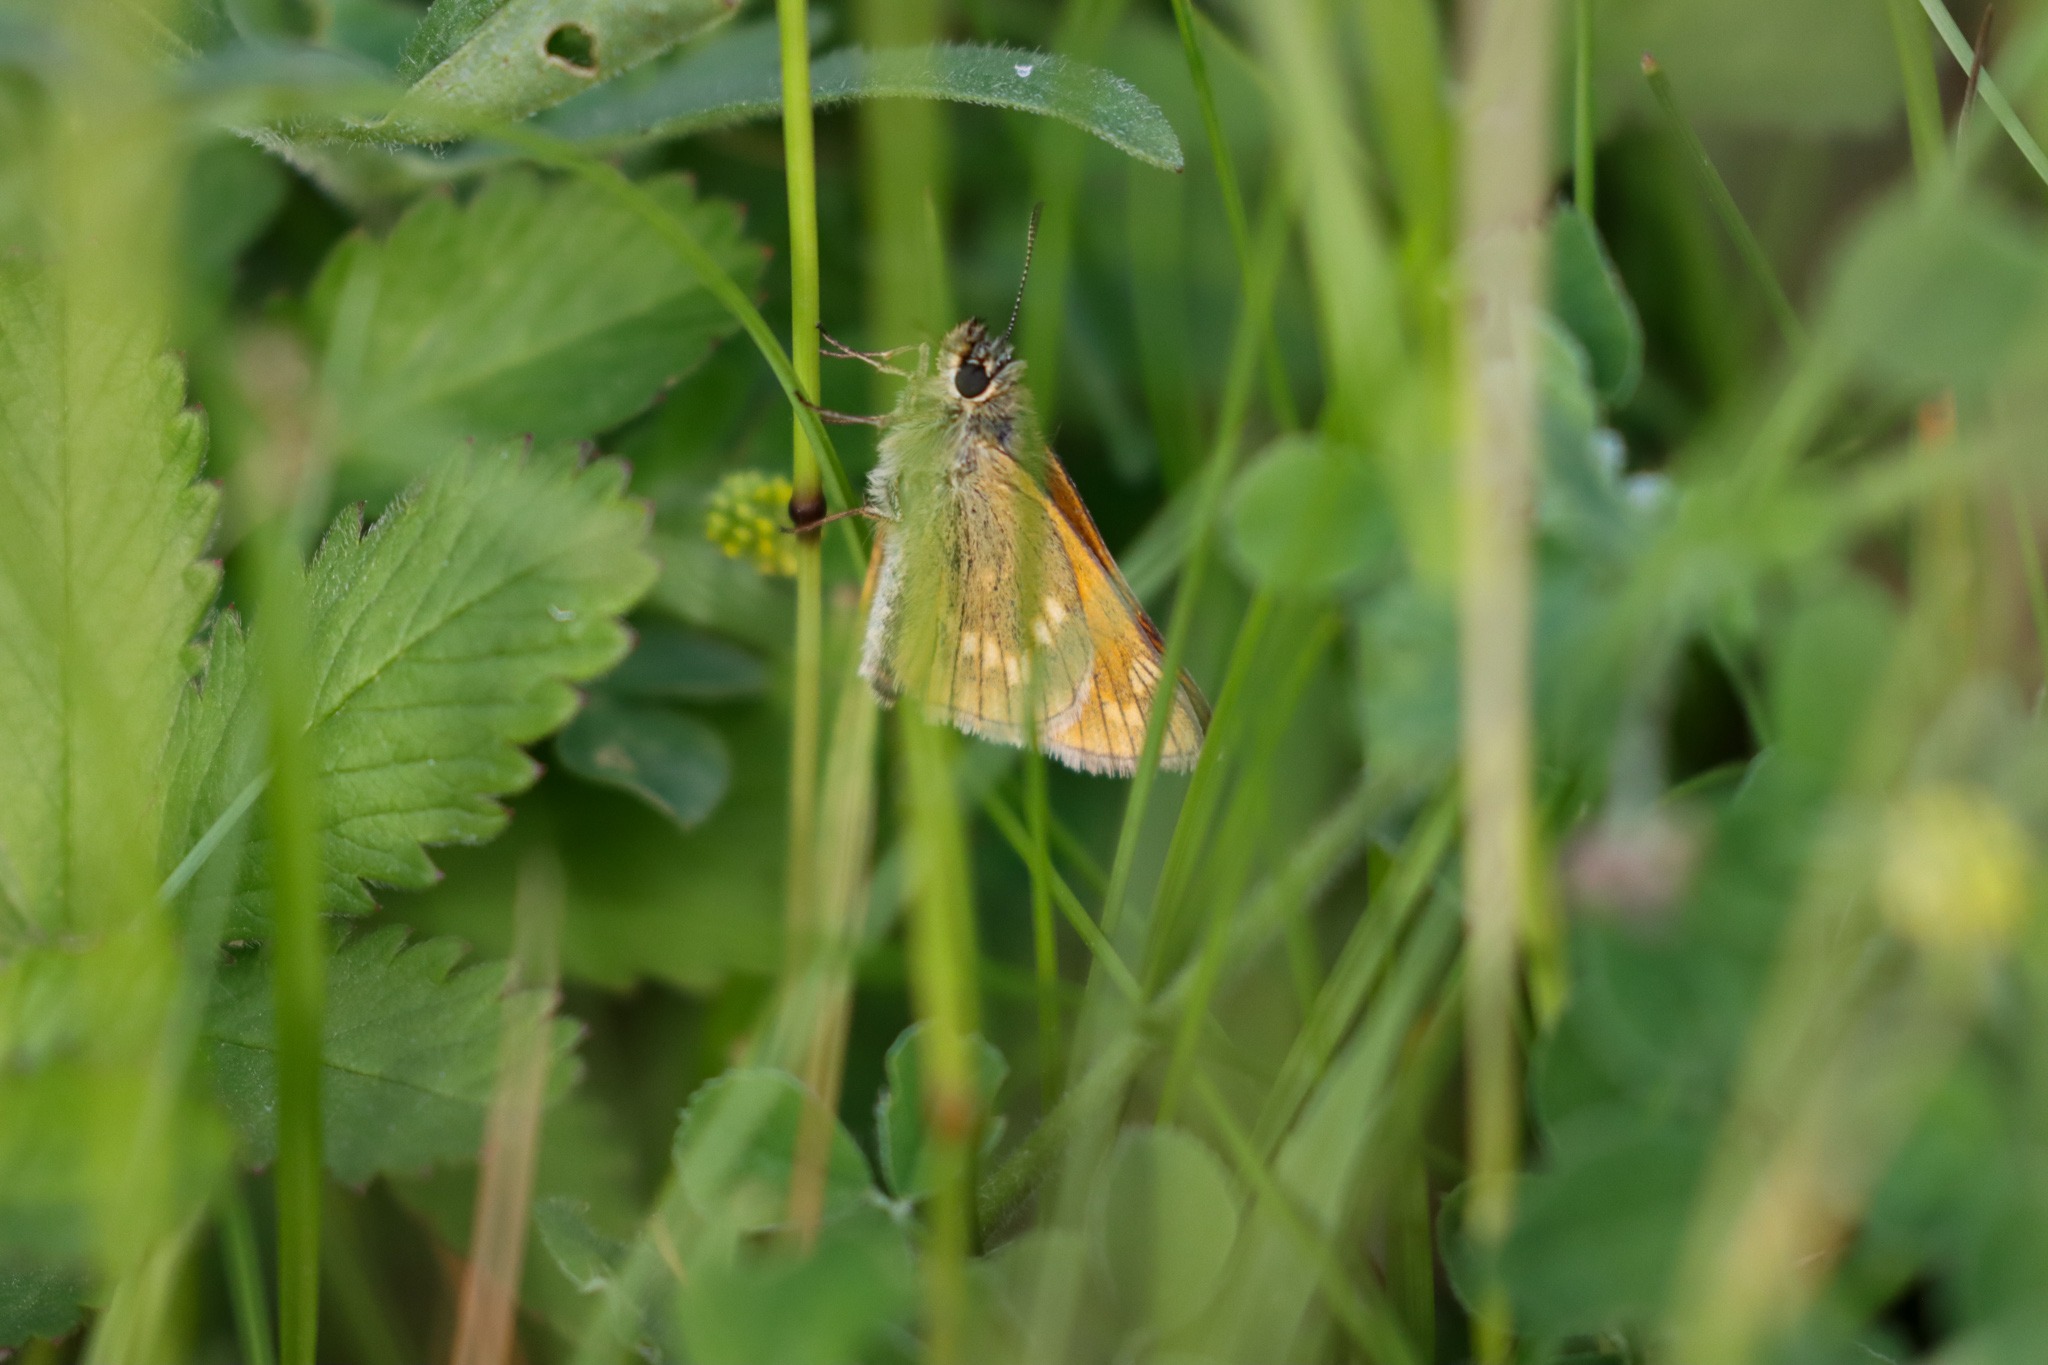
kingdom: Animalia
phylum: Arthropoda
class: Insecta
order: Lepidoptera
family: Hesperiidae
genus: Ochlodes
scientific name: Ochlodes venata
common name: Stor bredpande
